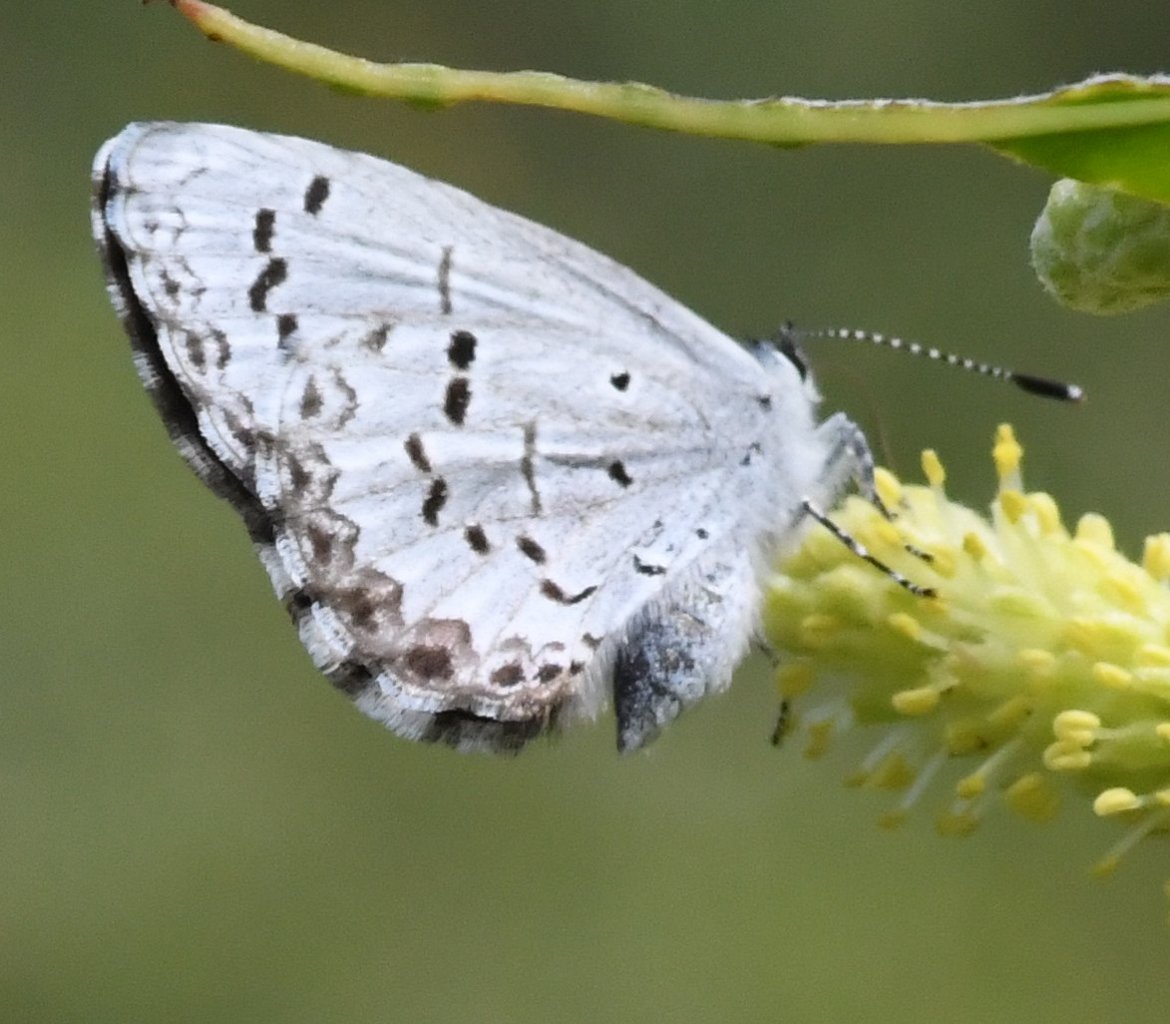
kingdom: Animalia
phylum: Arthropoda
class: Insecta
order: Lepidoptera
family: Lycaenidae
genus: Celastrina
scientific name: Celastrina
